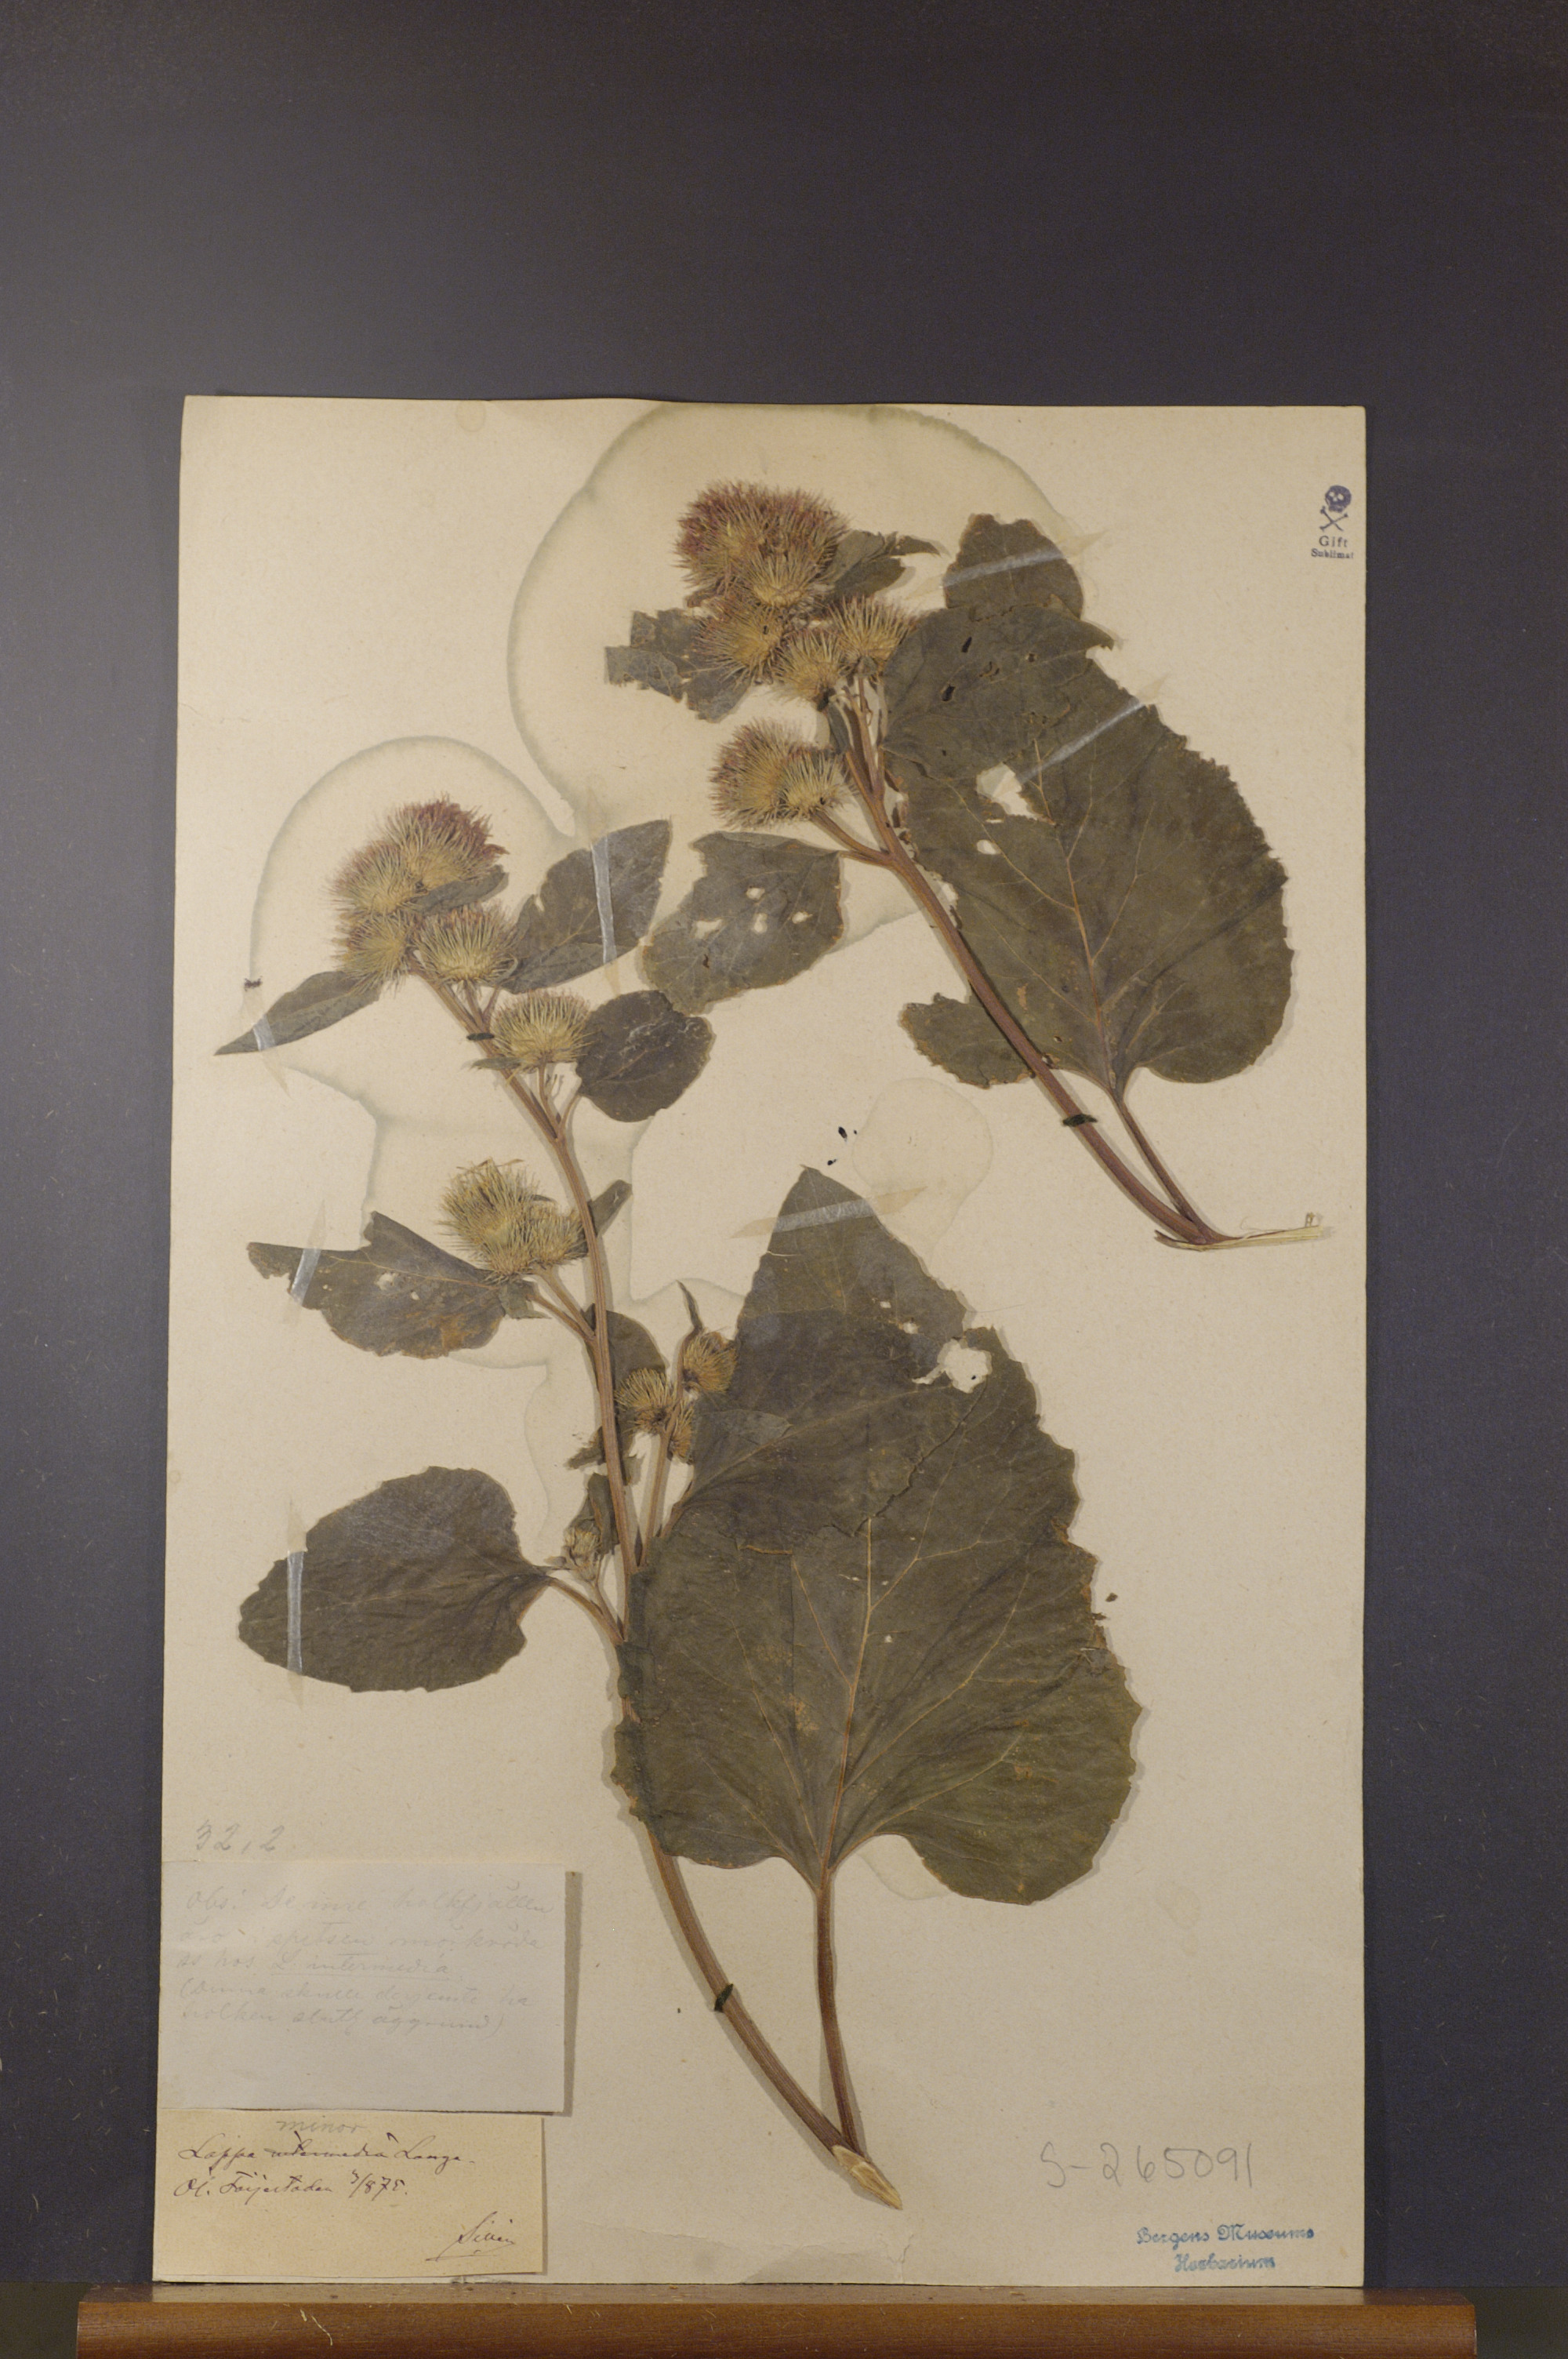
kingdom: Plantae
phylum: Tracheophyta
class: Magnoliopsida
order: Asterales
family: Asteraceae
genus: Arctium
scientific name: Arctium minus
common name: Lesser burdock
